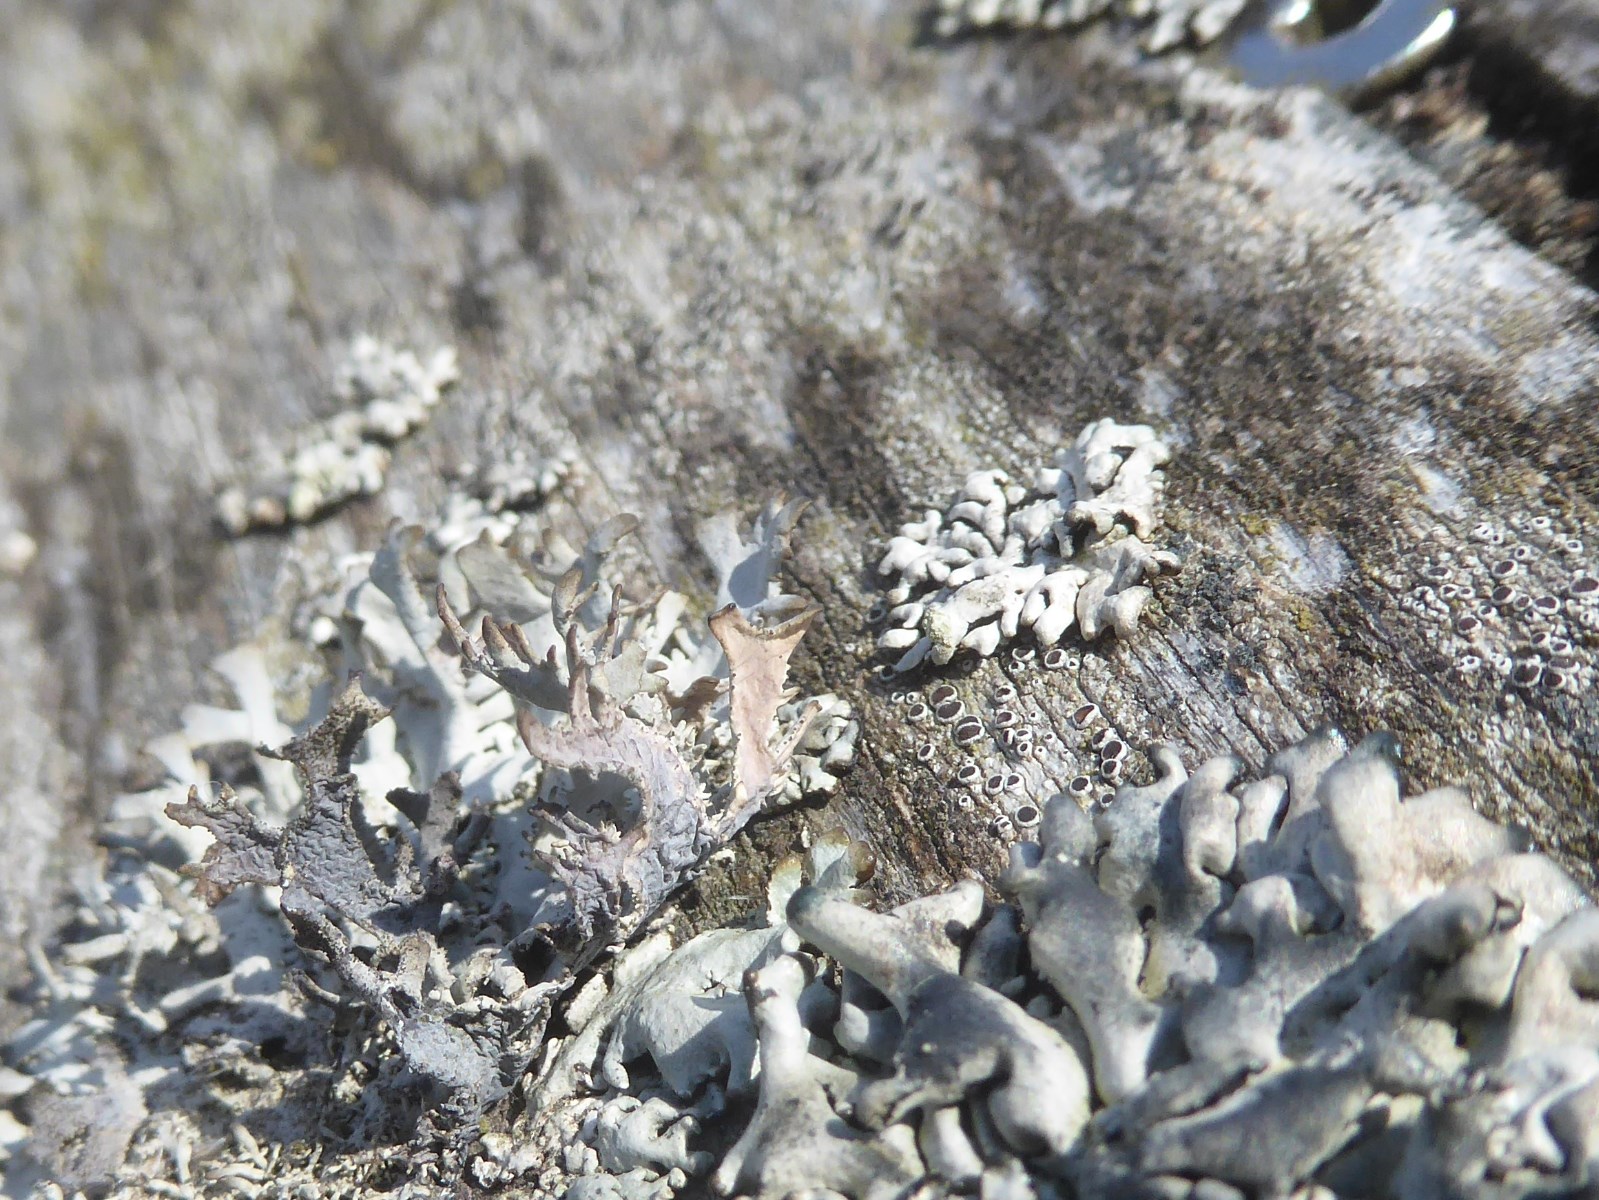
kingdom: Fungi
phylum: Ascomycota
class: Lecanoromycetes
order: Lecanorales
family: Parmeliaceae
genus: Pseudevernia
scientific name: Pseudevernia furfuracea
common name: grå fyrrelav
